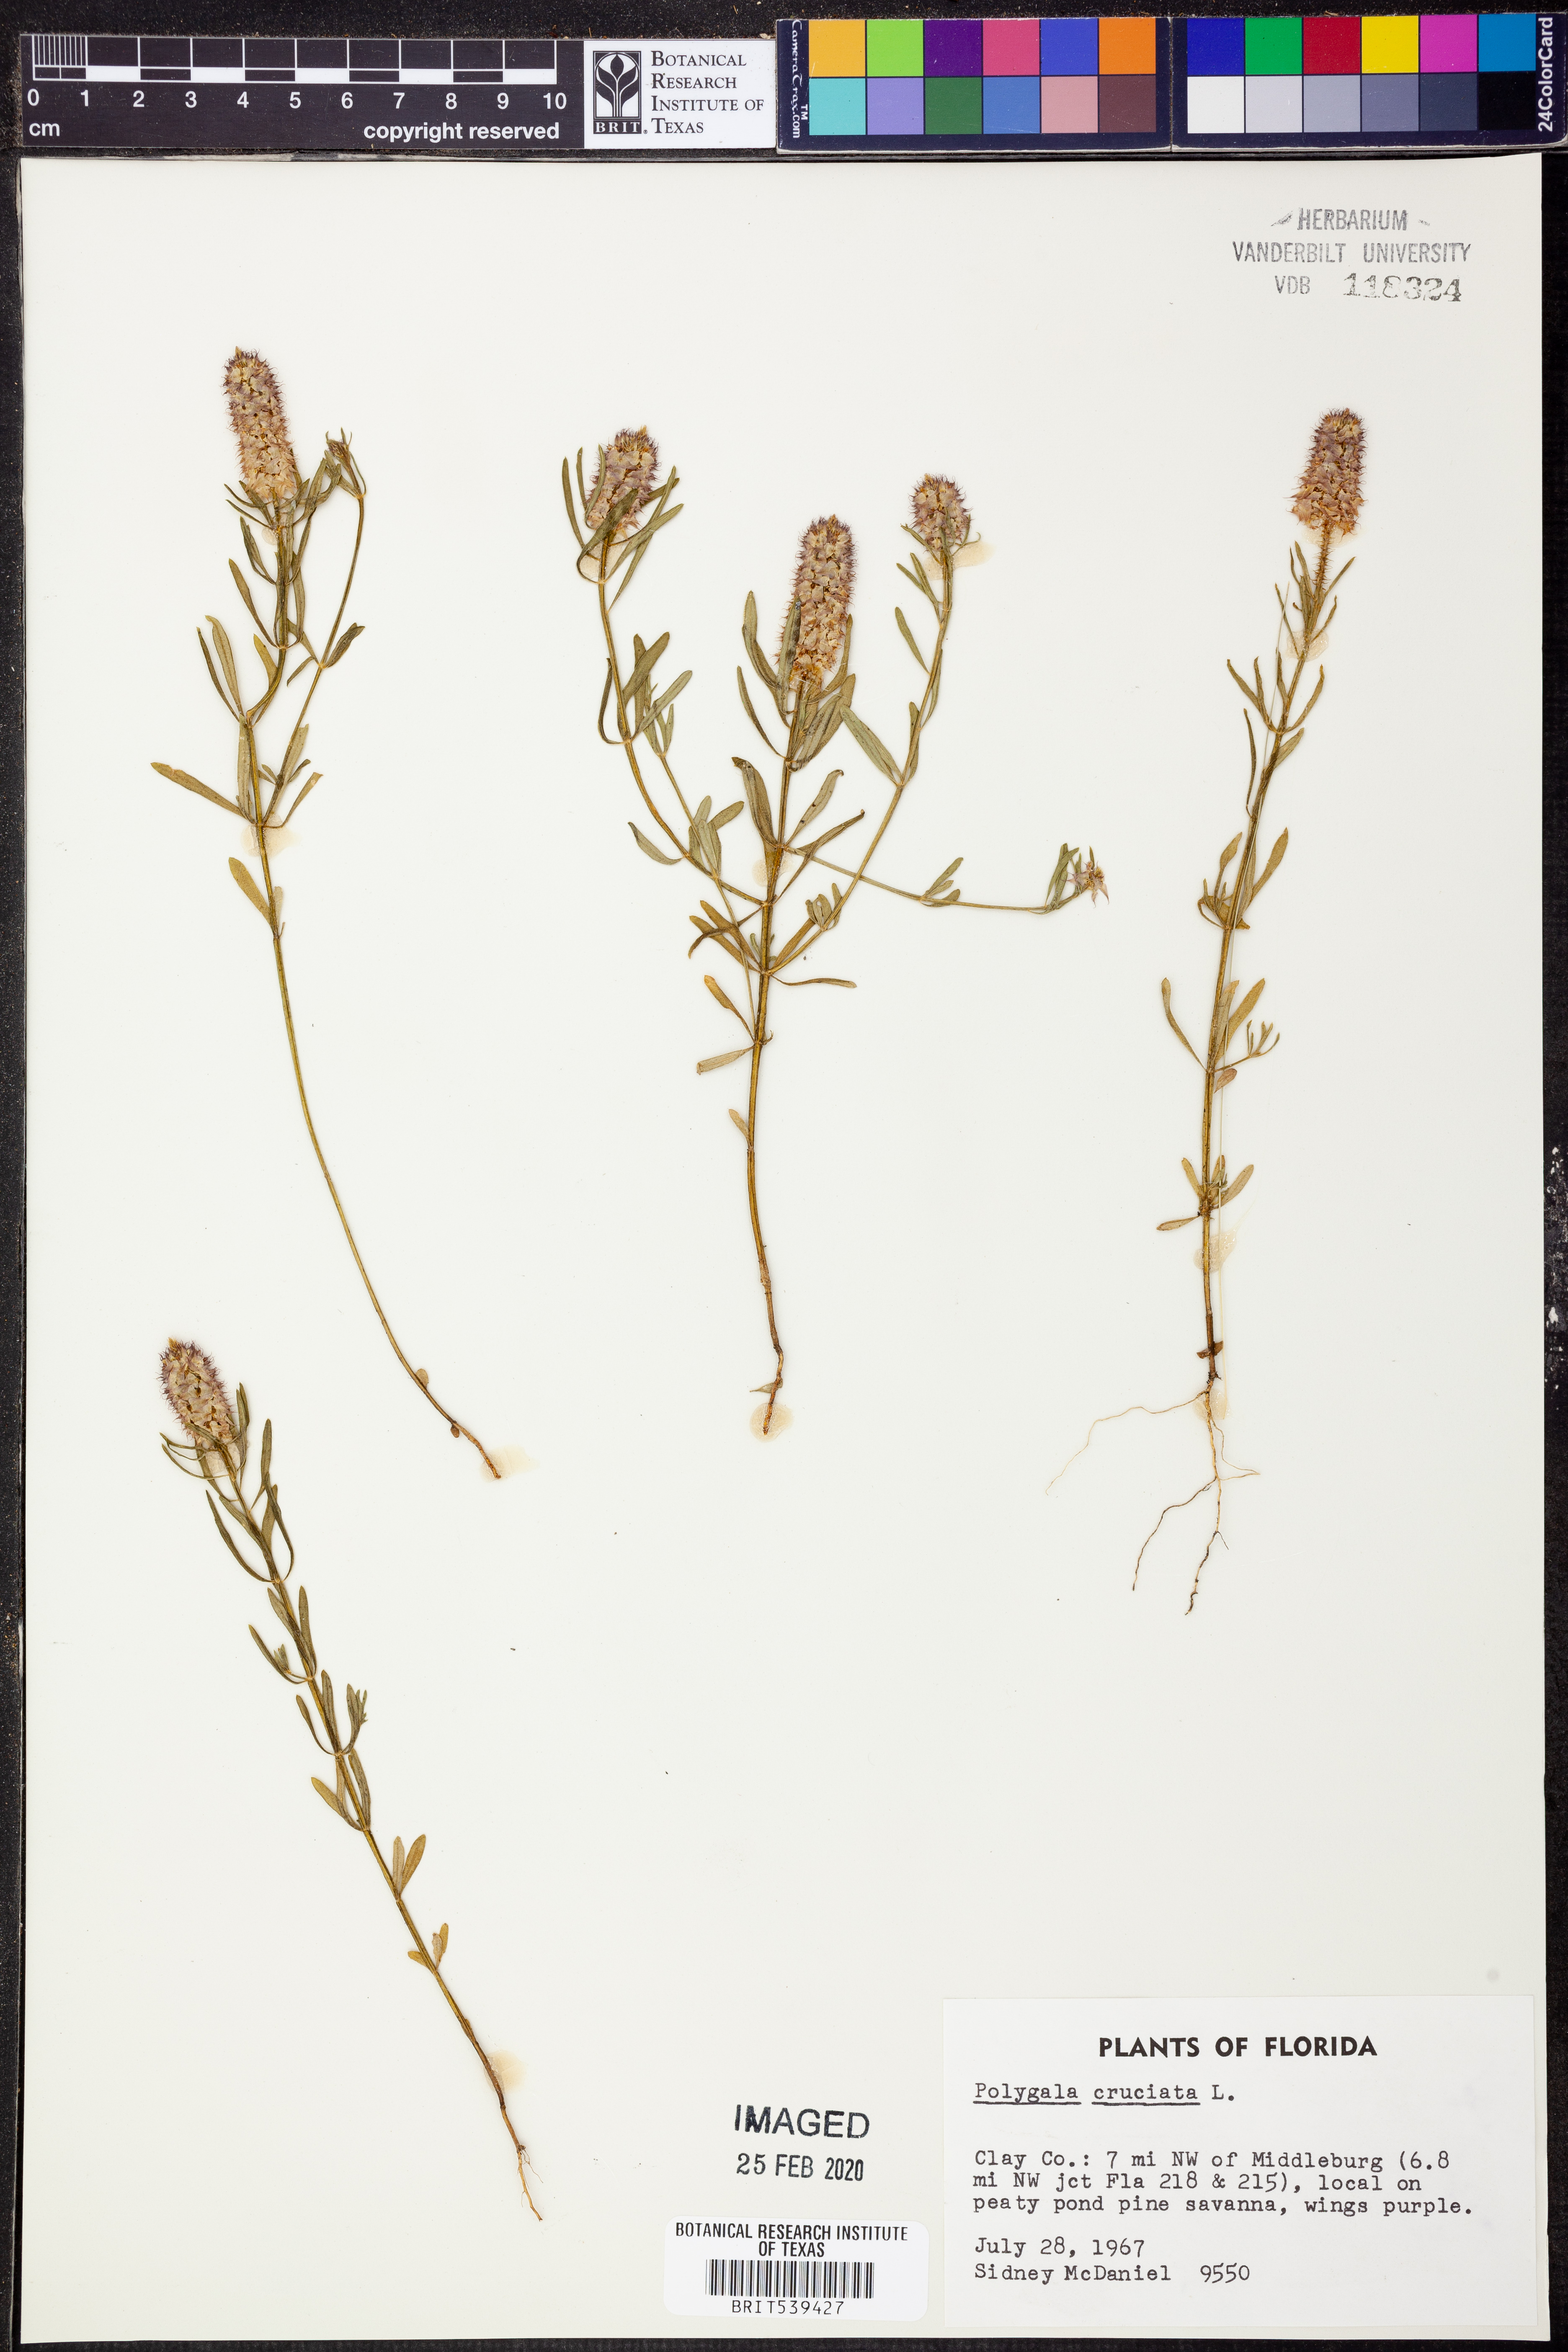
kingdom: Plantae
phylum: Tracheophyta
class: Magnoliopsida
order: Fabales
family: Polygalaceae
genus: Polygala
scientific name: Polygala cruciata
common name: Drumheads
